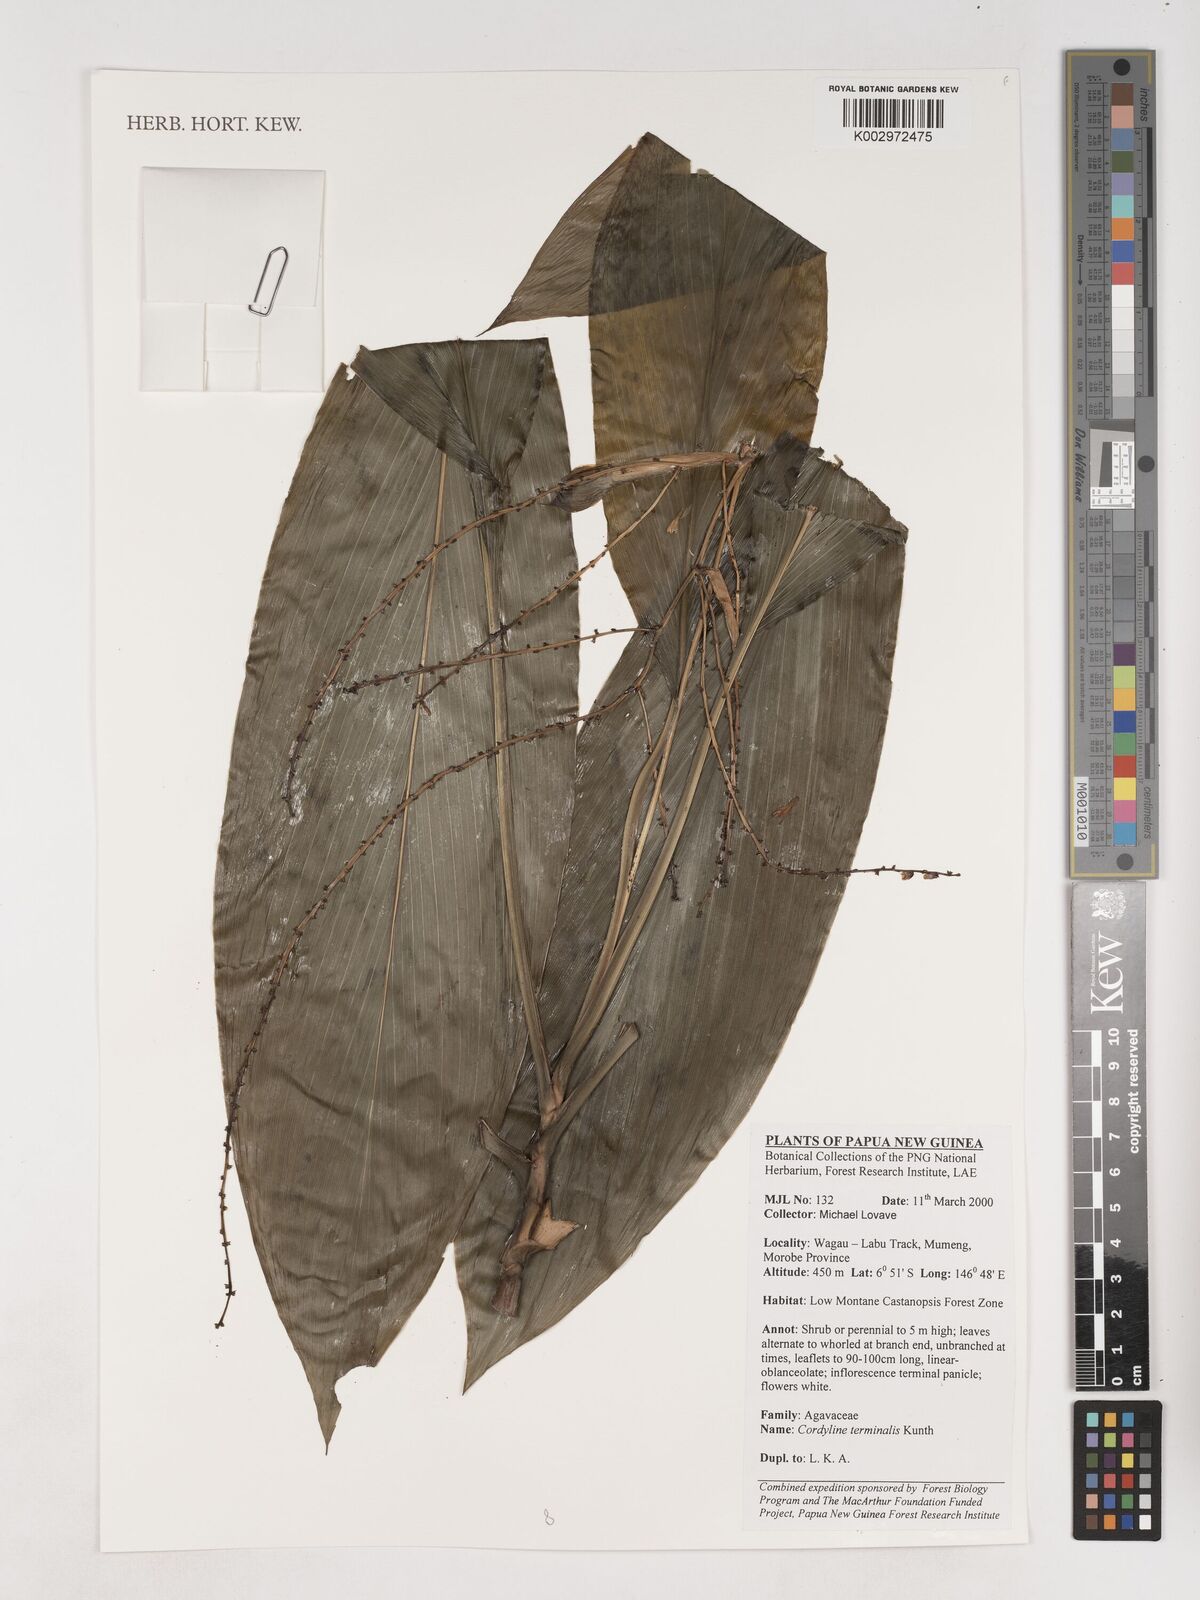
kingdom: Plantae
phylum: Tracheophyta
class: Liliopsida
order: Asparagales
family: Asparagaceae
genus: Cordyline
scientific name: Cordyline fruticosa
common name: Good-luck-plant
